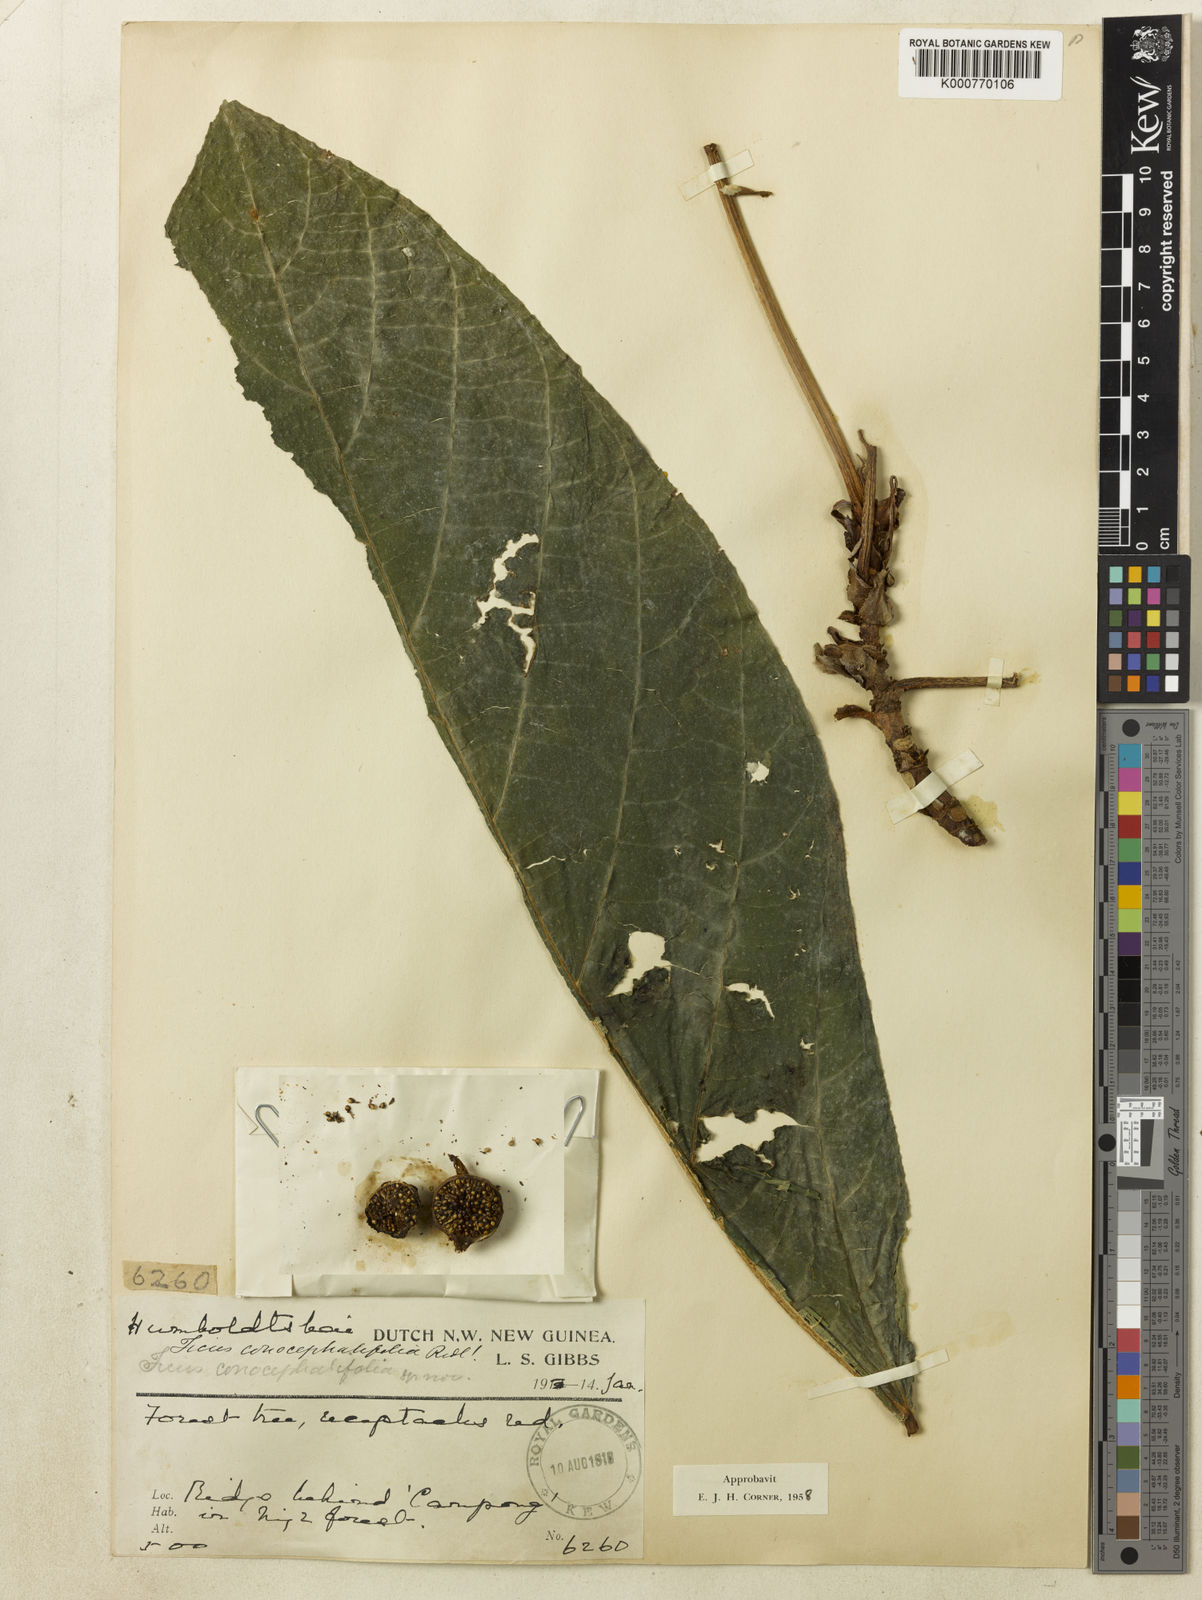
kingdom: Plantae
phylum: Tracheophyta
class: Magnoliopsida
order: Rosales
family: Moraceae
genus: Ficus
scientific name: Ficus conocephalifolia
